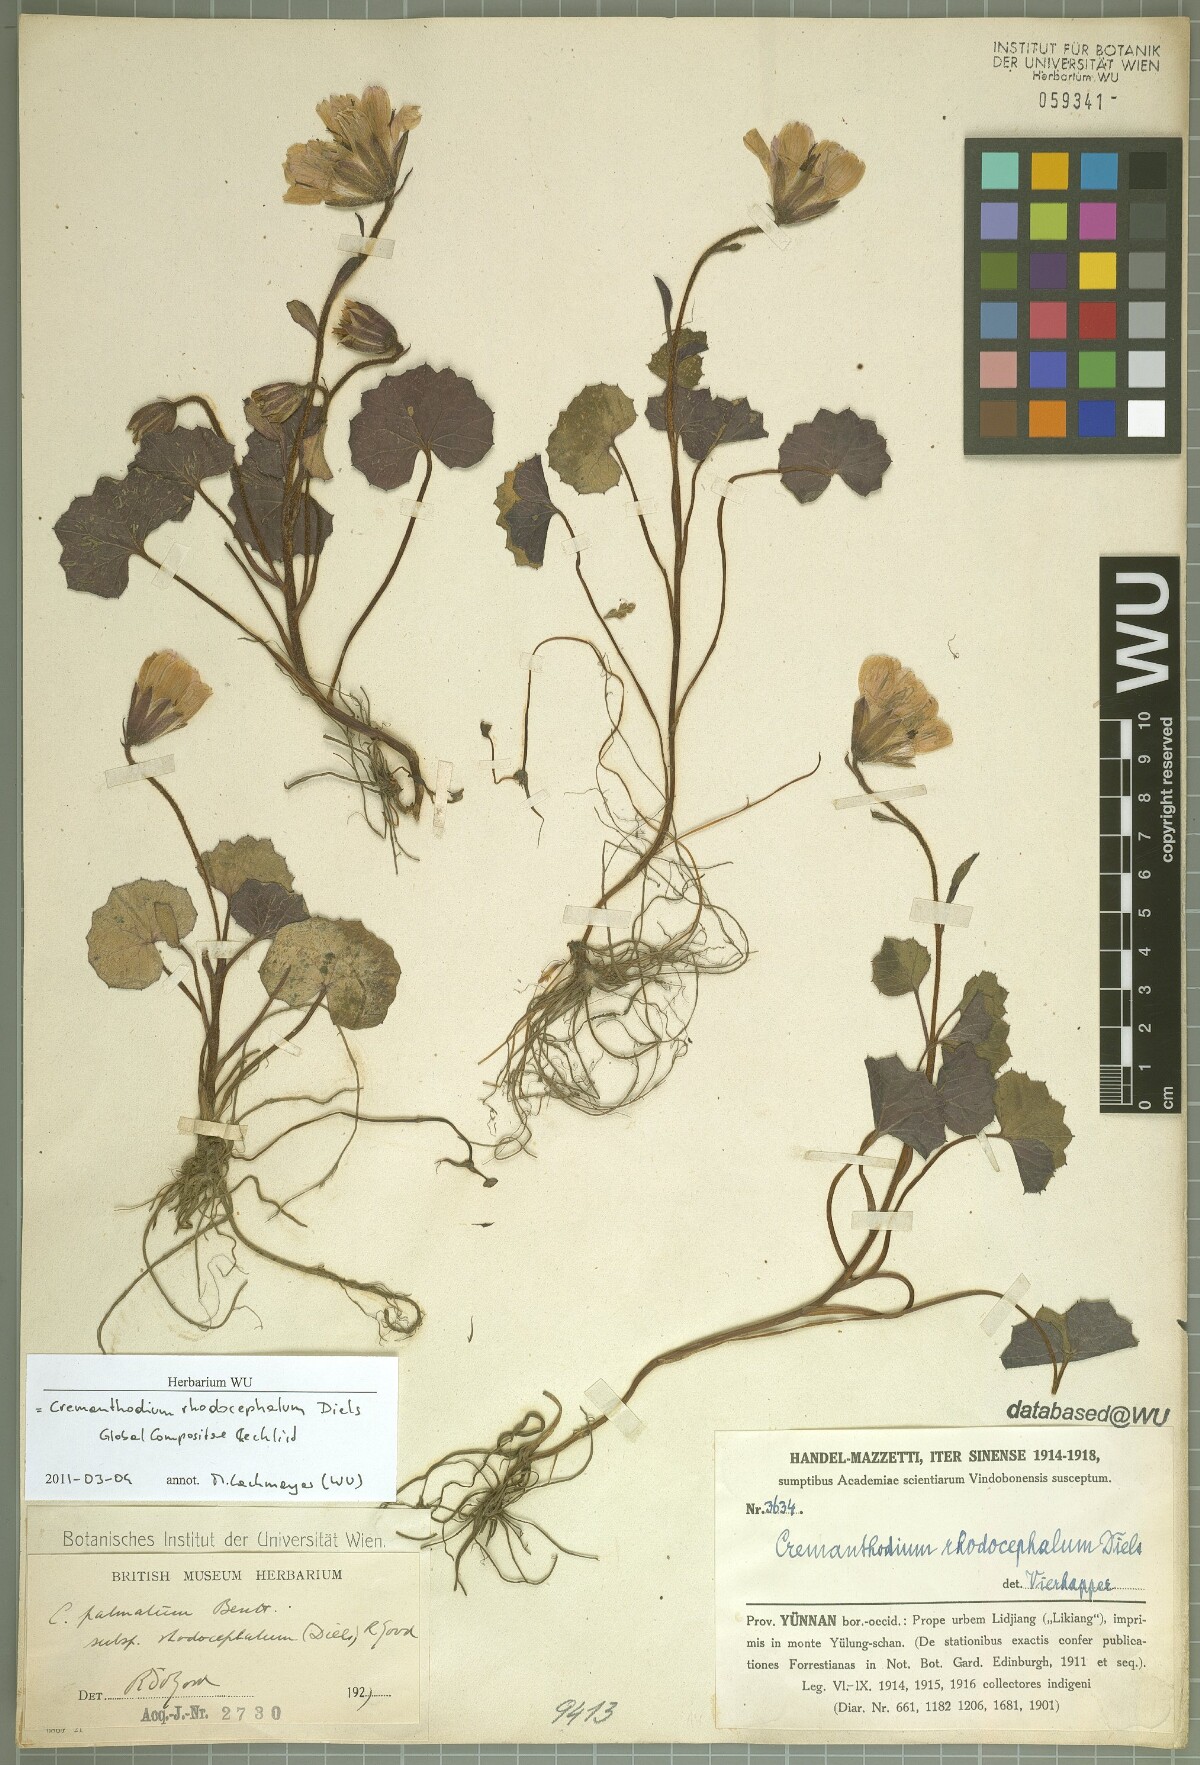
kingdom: Plantae
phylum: Tracheophyta
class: Magnoliopsida
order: Asterales
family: Asteraceae
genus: Cremanthodium
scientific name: Cremanthodium palmatum
